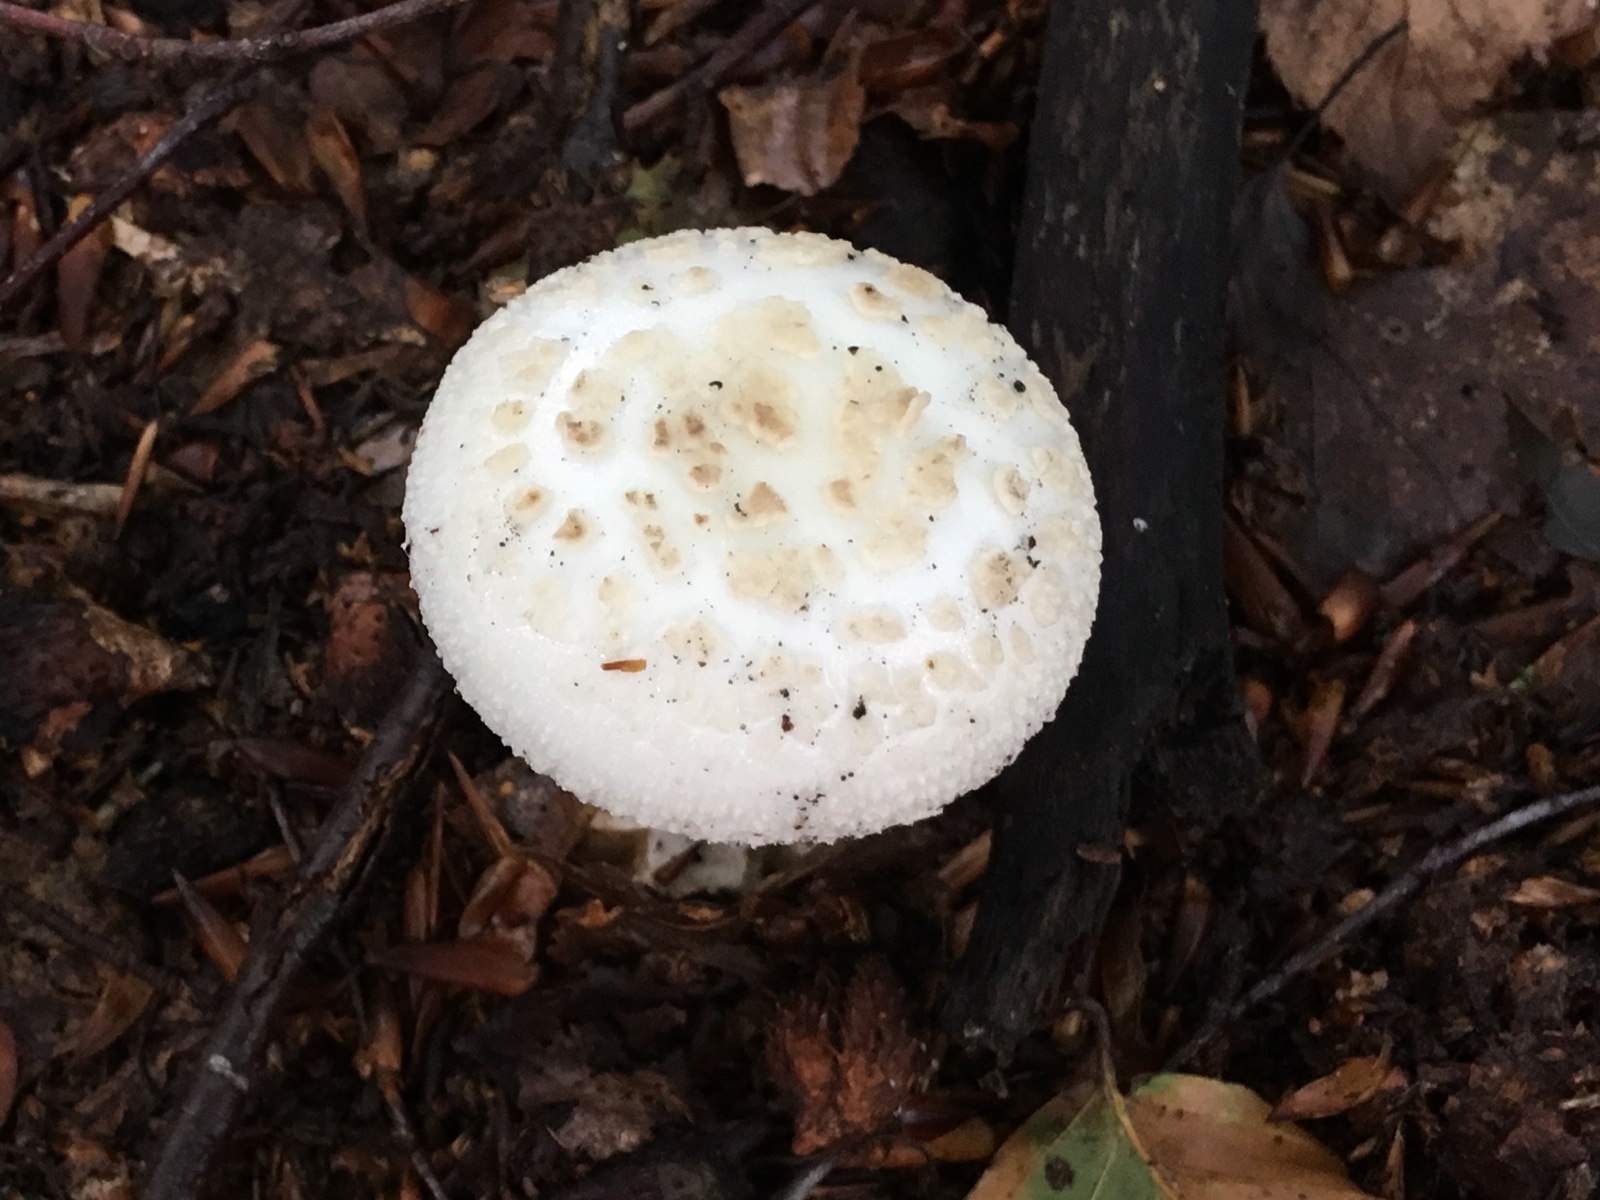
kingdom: Fungi
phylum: Basidiomycota
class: Agaricomycetes
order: Agaricales
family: Amanitaceae
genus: Amanita
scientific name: Amanita citrina
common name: False death-cap
